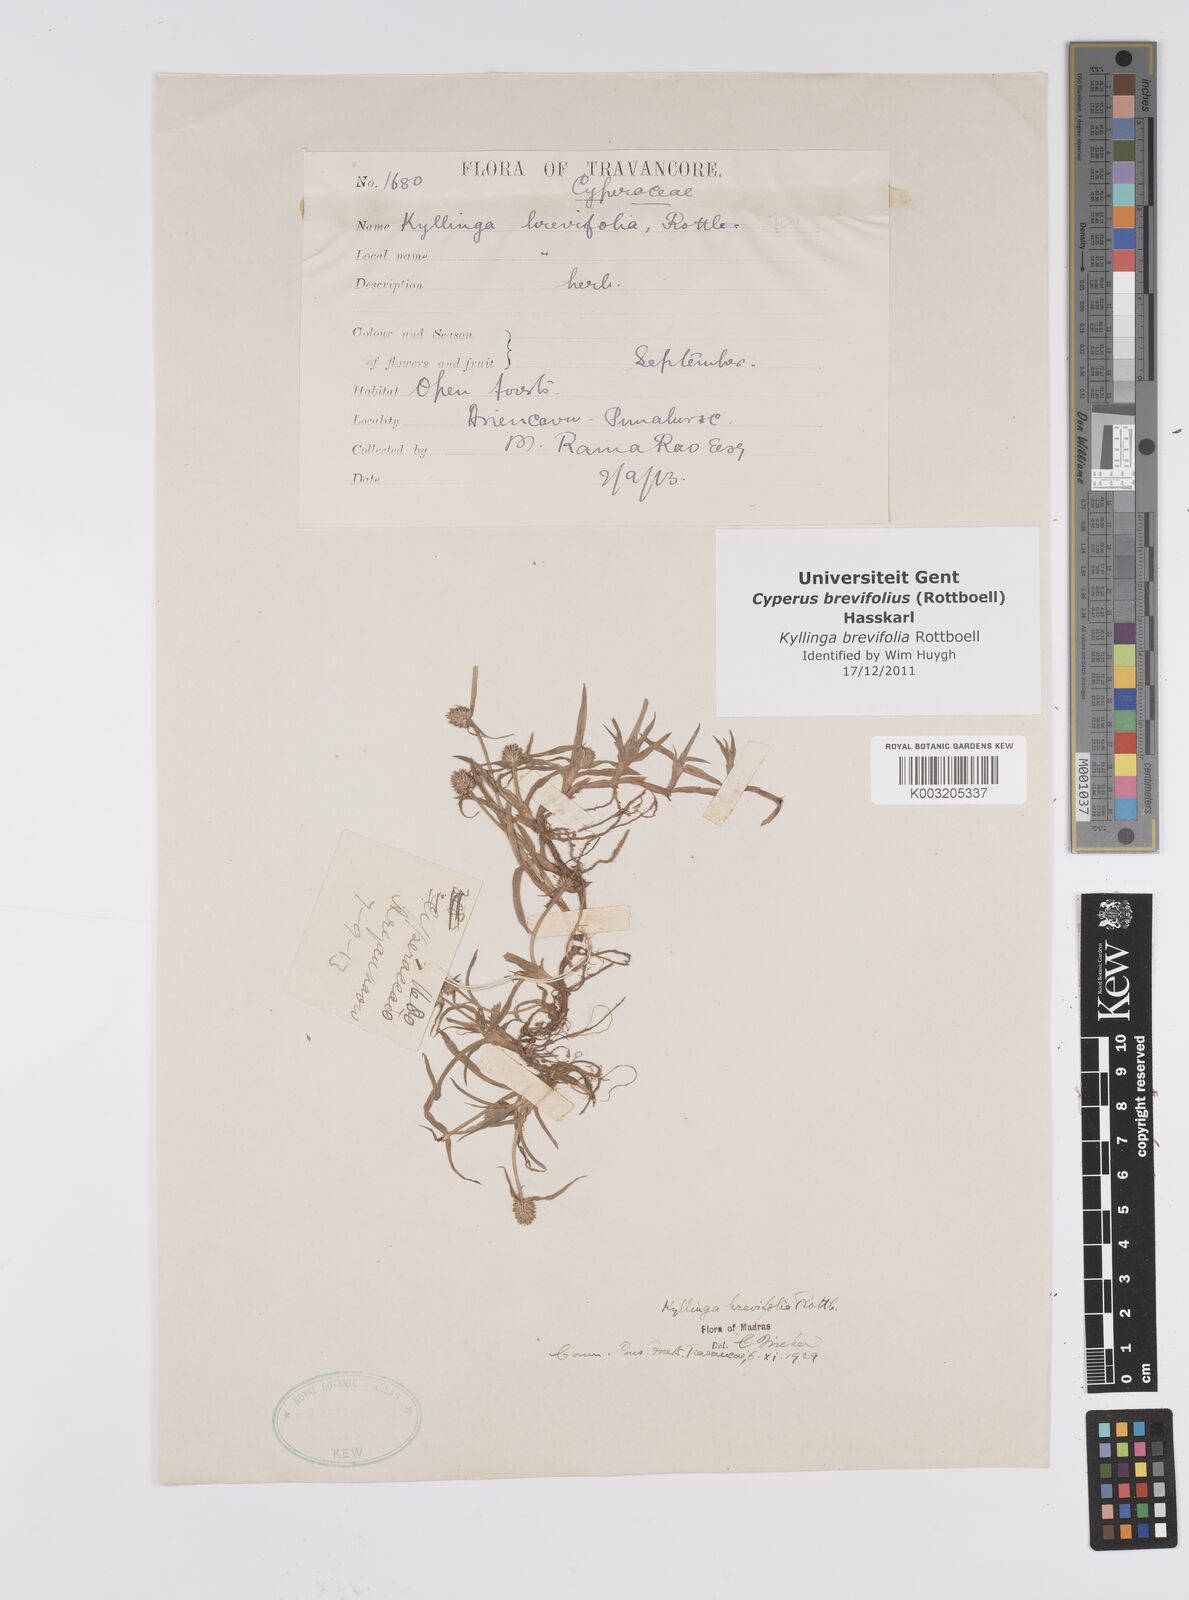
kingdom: Plantae
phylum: Tracheophyta
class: Liliopsida
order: Poales
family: Cyperaceae
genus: Cyperus
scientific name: Cyperus brevifolius
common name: Globe kyllinga
